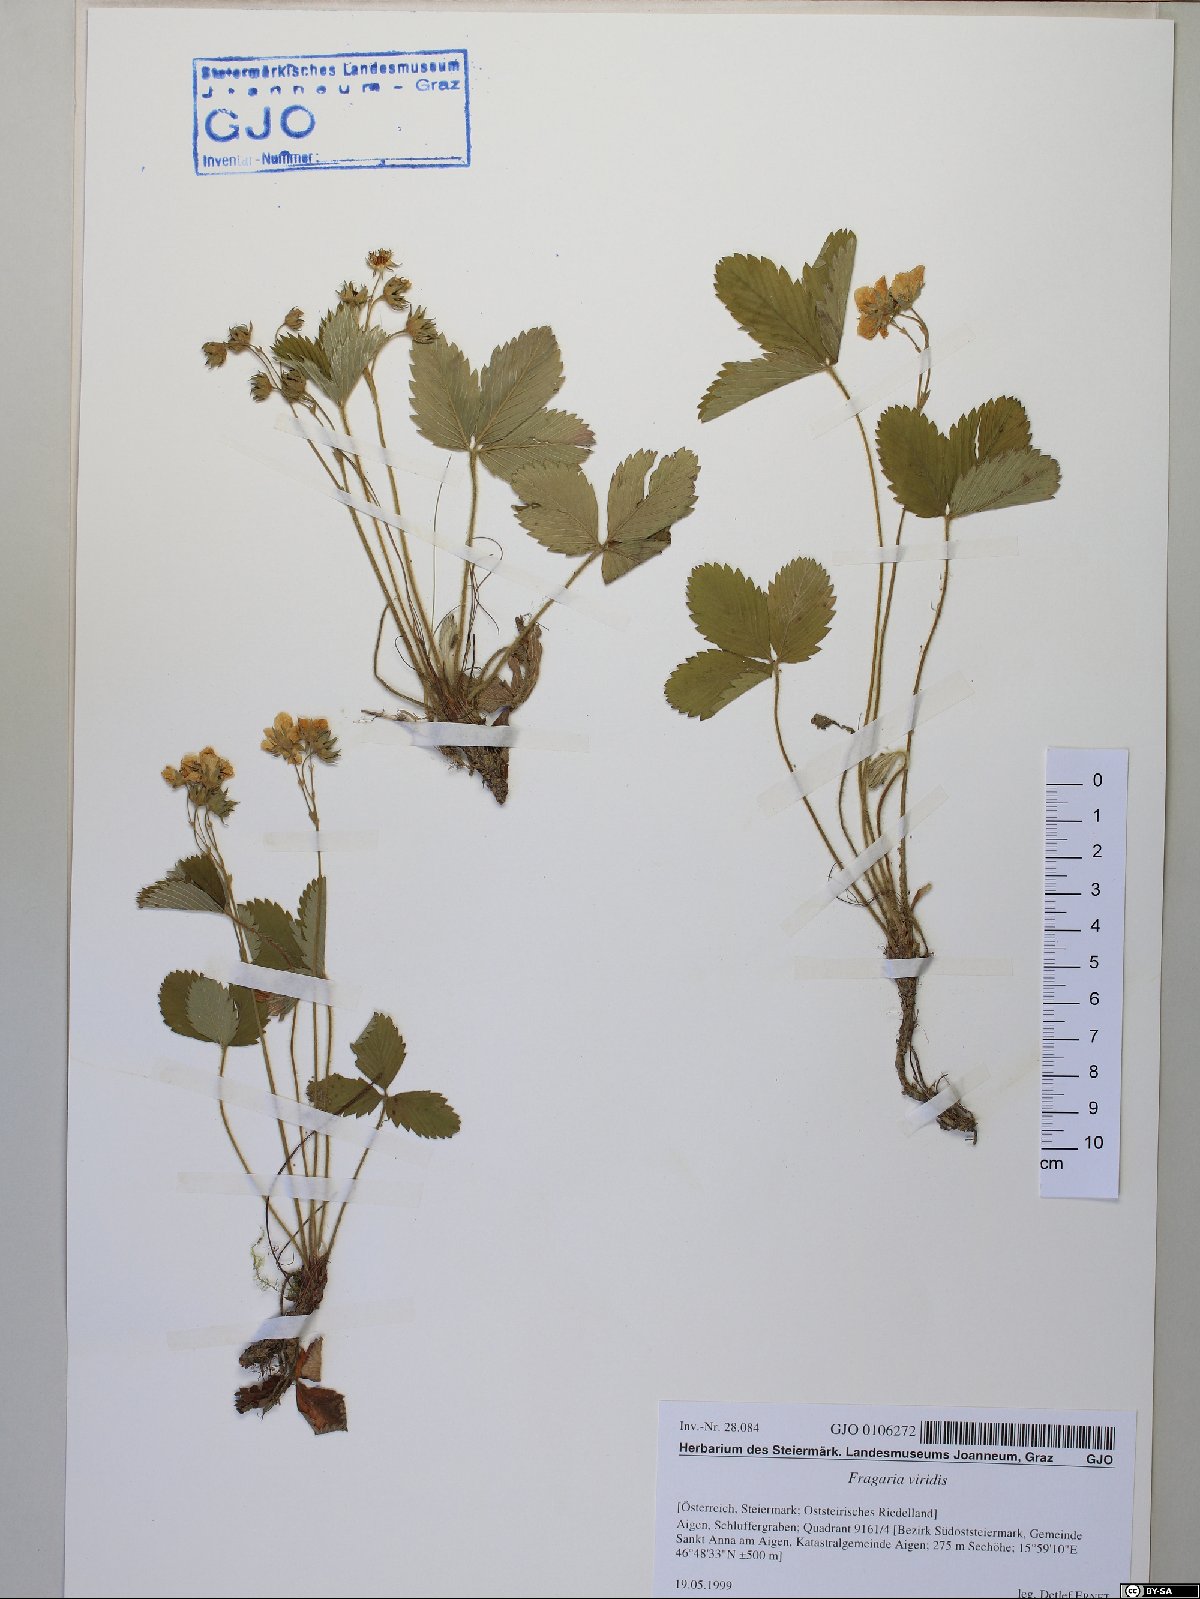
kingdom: Plantae
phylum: Tracheophyta
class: Magnoliopsida
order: Rosales
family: Rosaceae
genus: Fragaria
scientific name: Fragaria viridis
